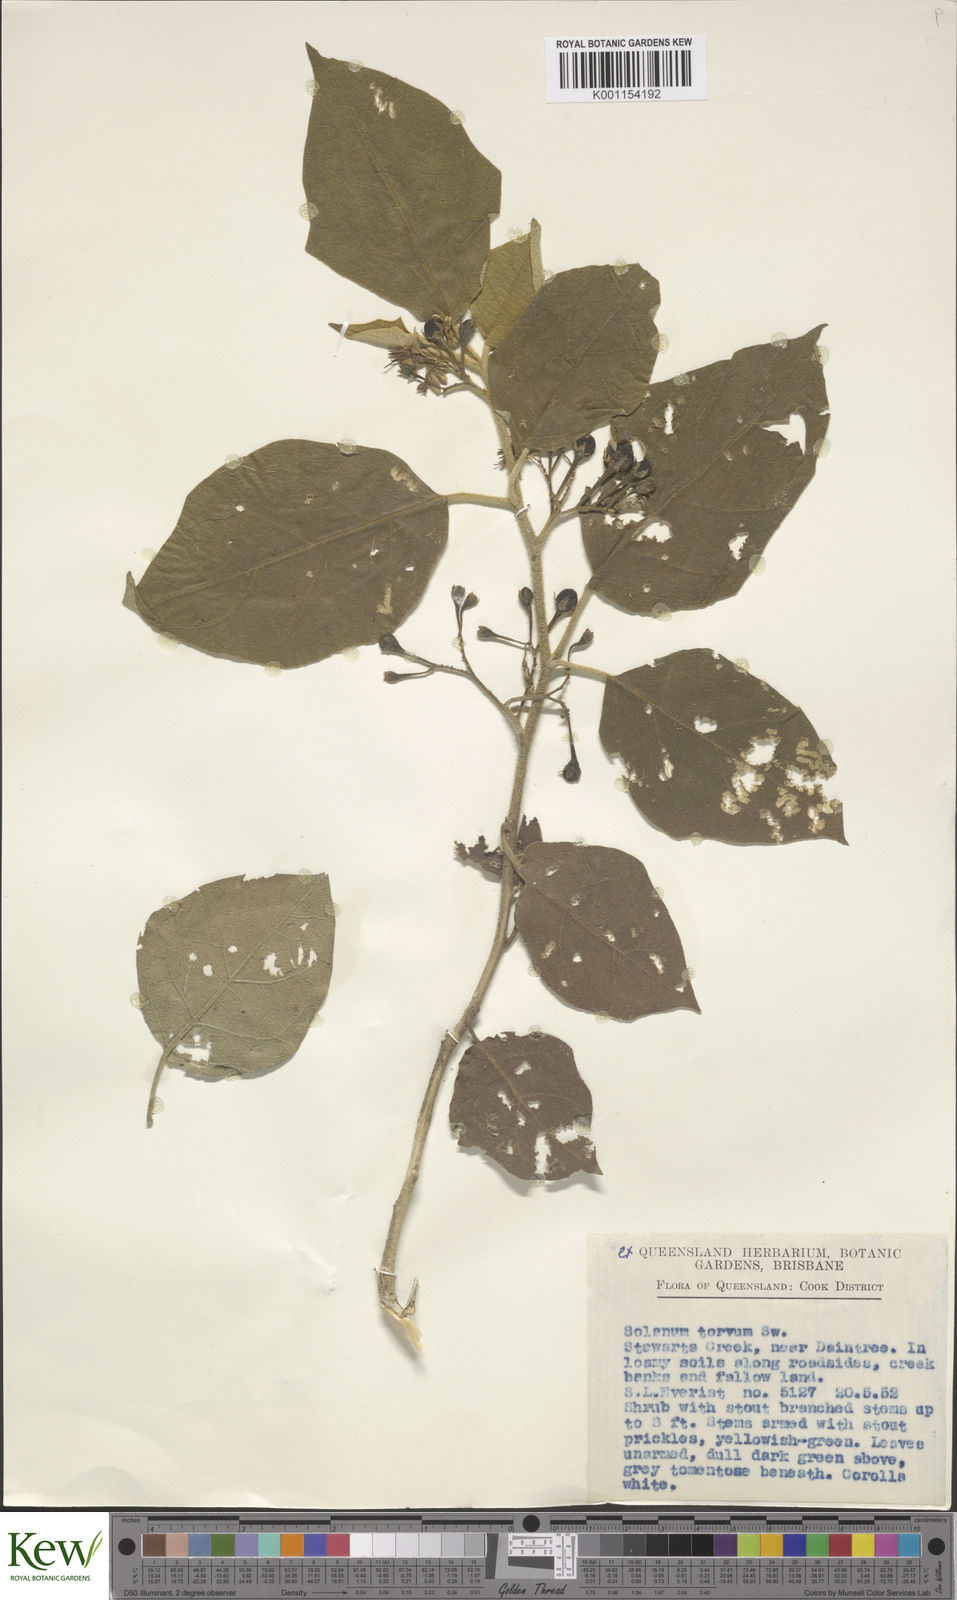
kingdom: Plantae
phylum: Tracheophyta
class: Magnoliopsida
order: Solanales
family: Solanaceae
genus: Solanum
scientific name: Solanum torvum
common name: Turkey berry
